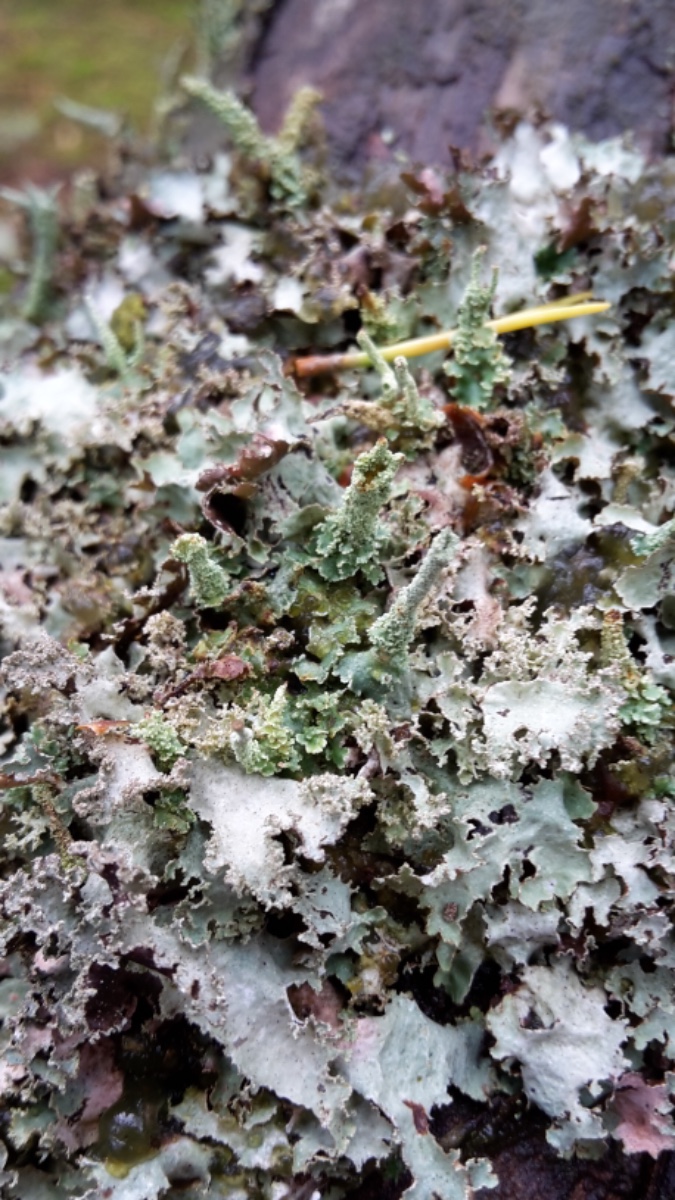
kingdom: Fungi
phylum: Ascomycota
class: Lecanoromycetes
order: Lecanorales
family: Parmeliaceae
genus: Platismatia
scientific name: Platismatia glauca
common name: blågrå papirlav
